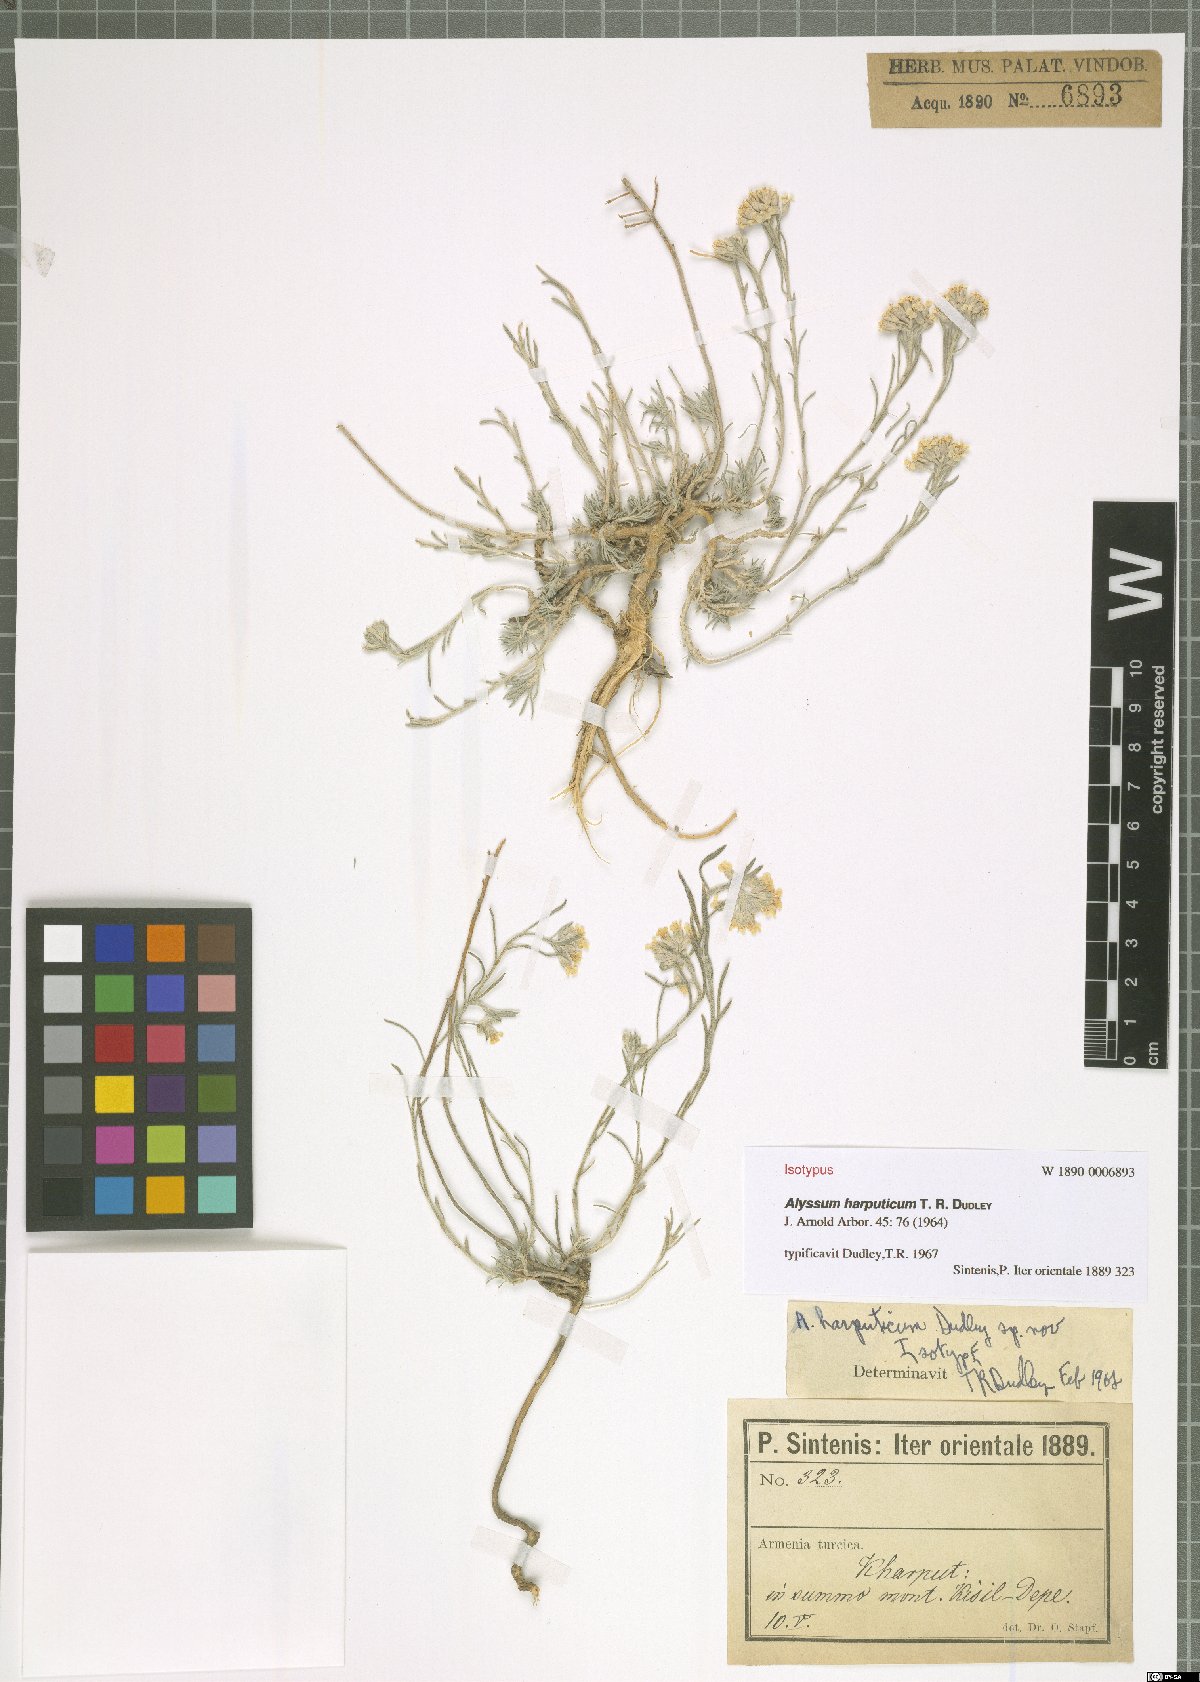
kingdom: Plantae
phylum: Tracheophyta
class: Magnoliopsida
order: Brassicales
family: Brassicaceae
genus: Alyssum
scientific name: Alyssum harputicum
